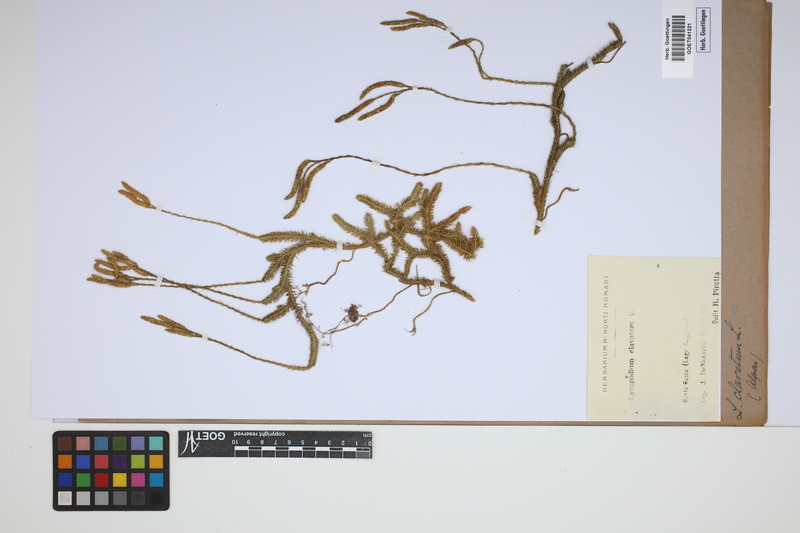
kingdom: Plantae
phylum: Tracheophyta
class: Lycopodiopsida
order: Lycopodiales
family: Lycopodiaceae
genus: Lycopodium
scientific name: Lycopodium clavatum
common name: Stag's-horn clubmoss
